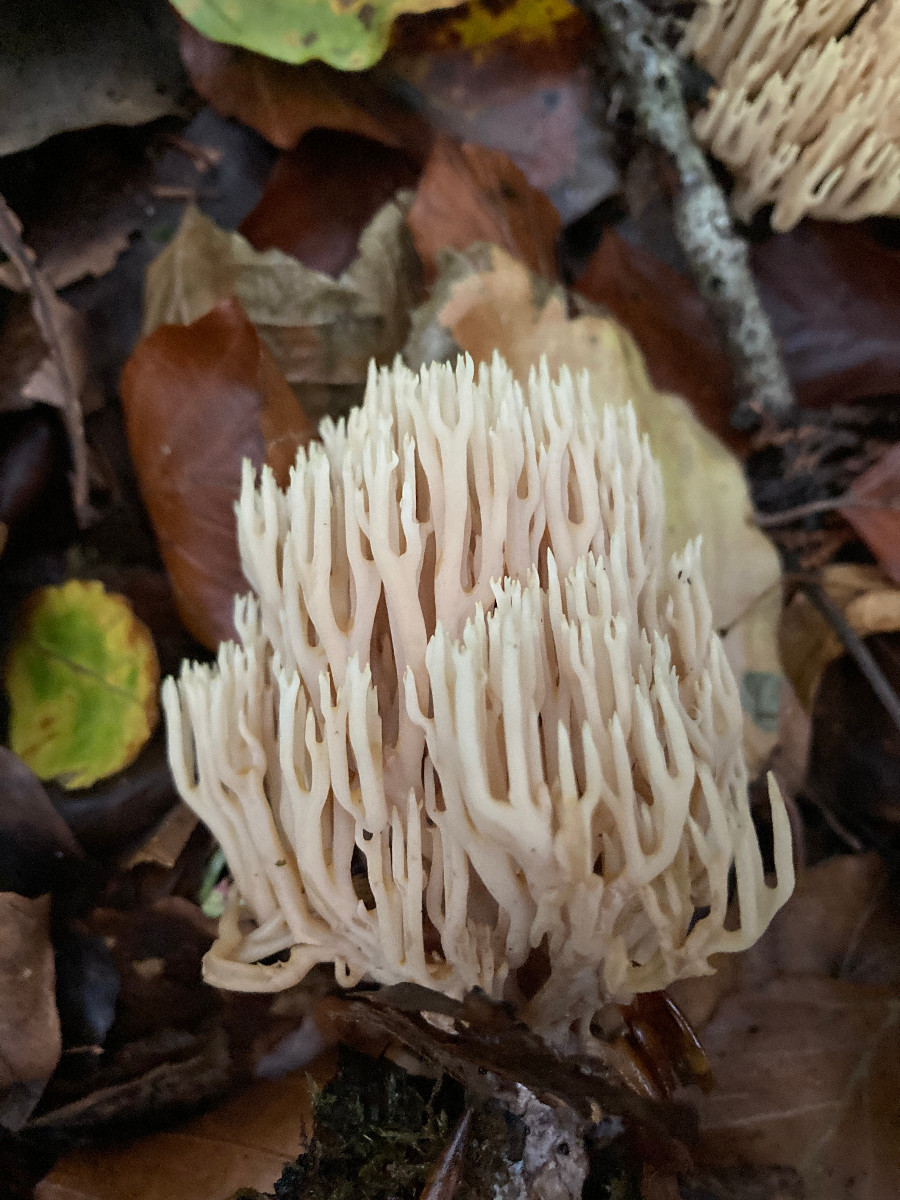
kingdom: Fungi
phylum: Basidiomycota
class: Agaricomycetes
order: Gomphales
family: Gomphaceae
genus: Ramaria
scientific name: Ramaria stricta
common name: rank koralsvamp
